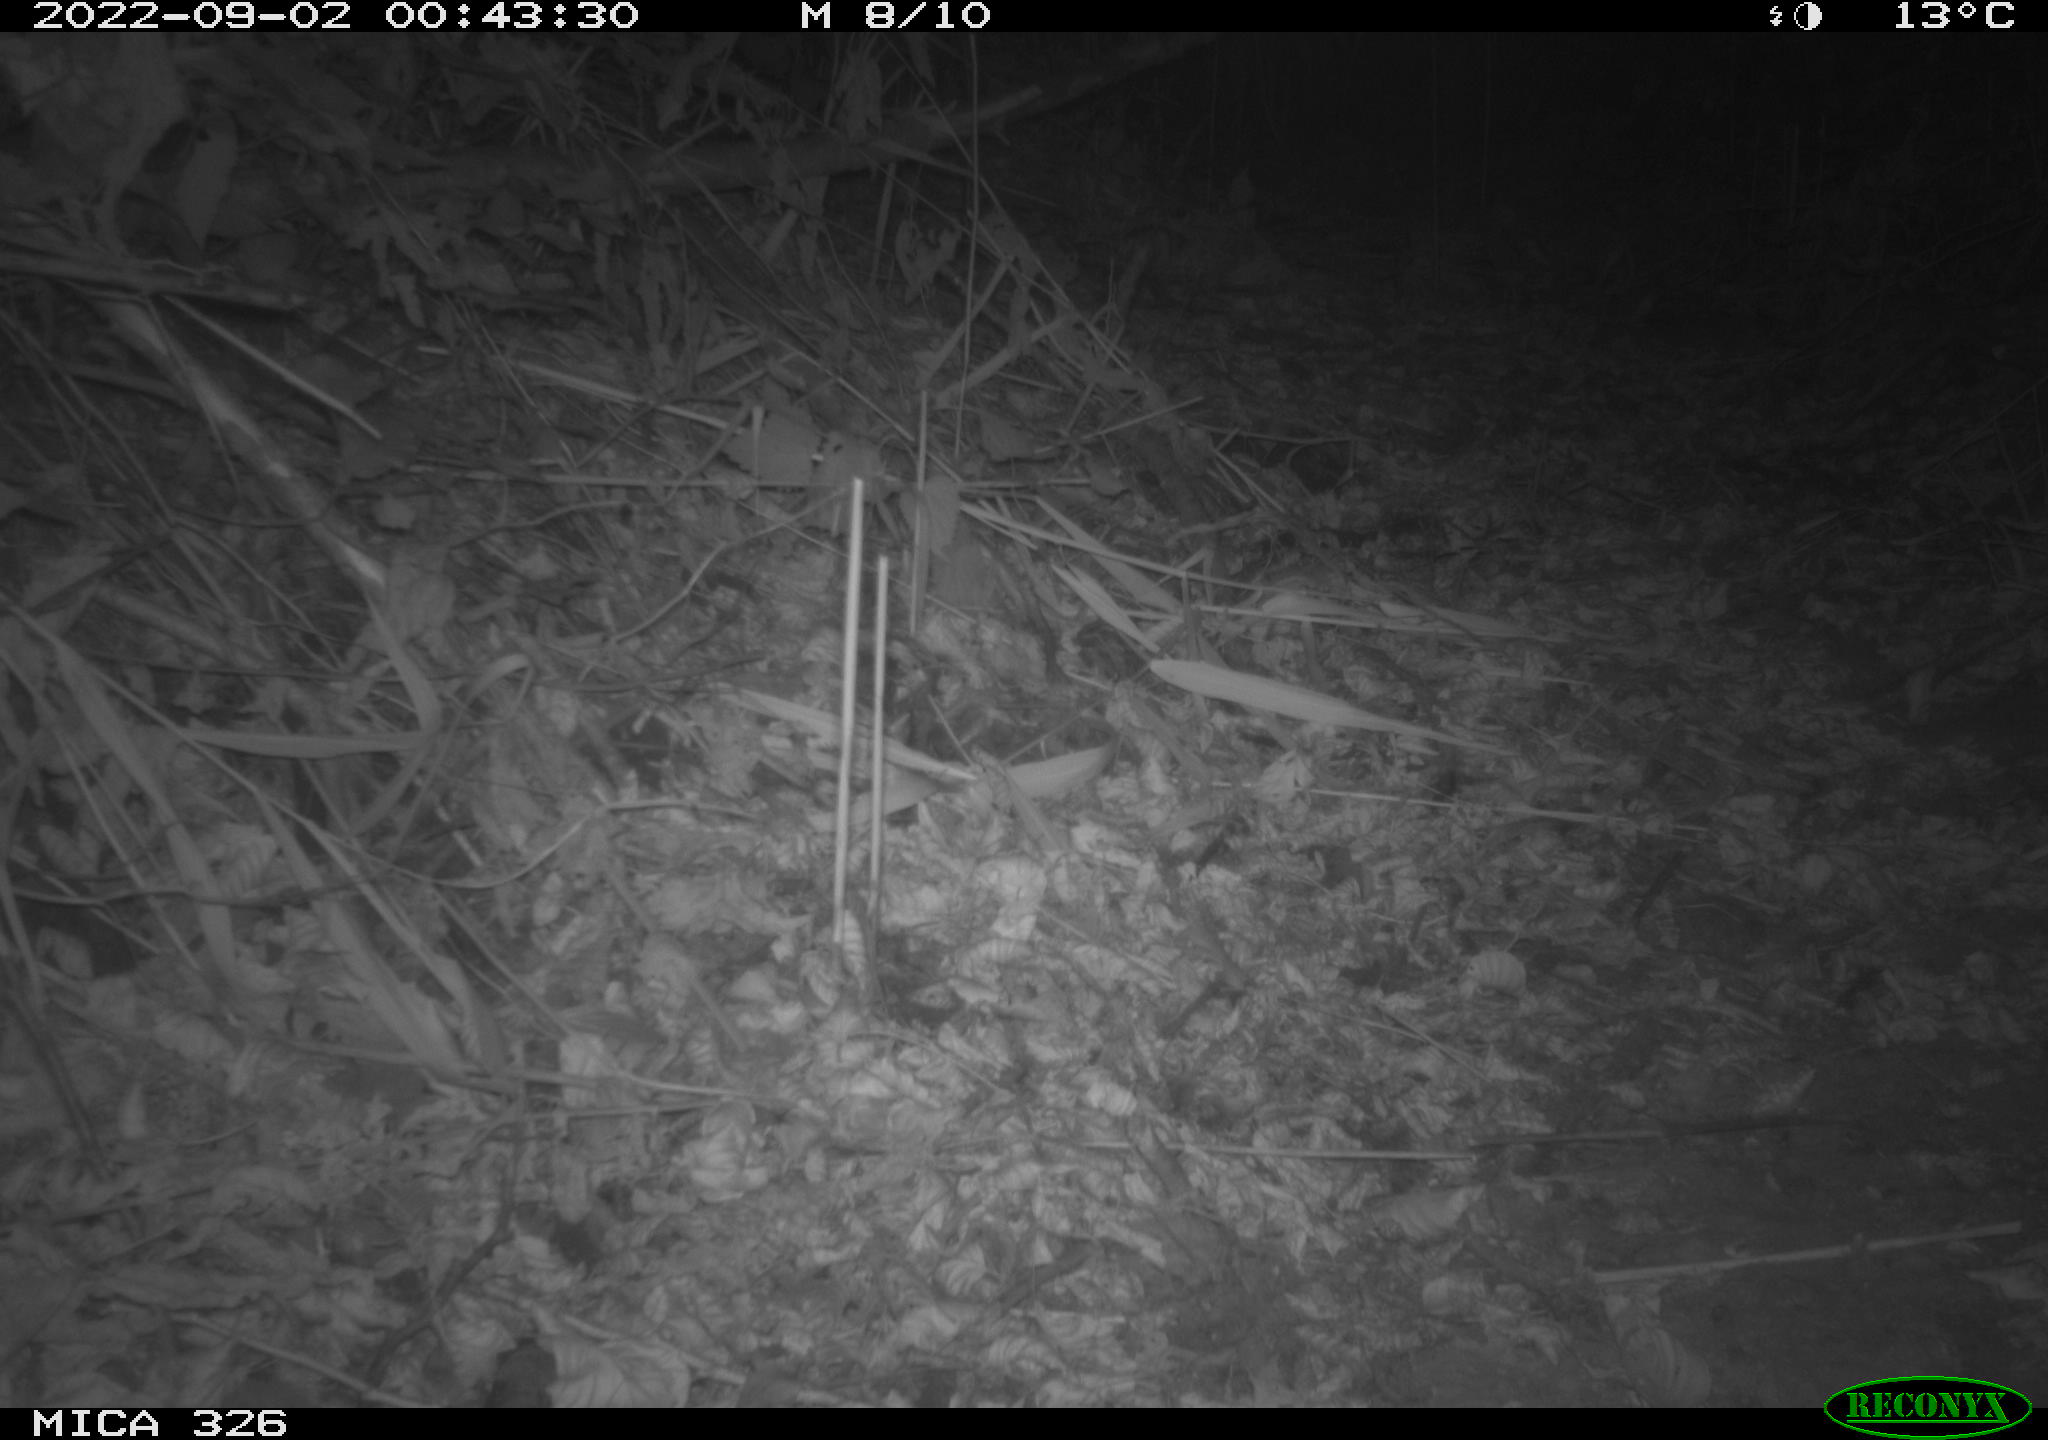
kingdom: Animalia
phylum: Chordata
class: Mammalia
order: Carnivora
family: Mustelidae
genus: Mustela
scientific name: Mustela putorius
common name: European polecat
